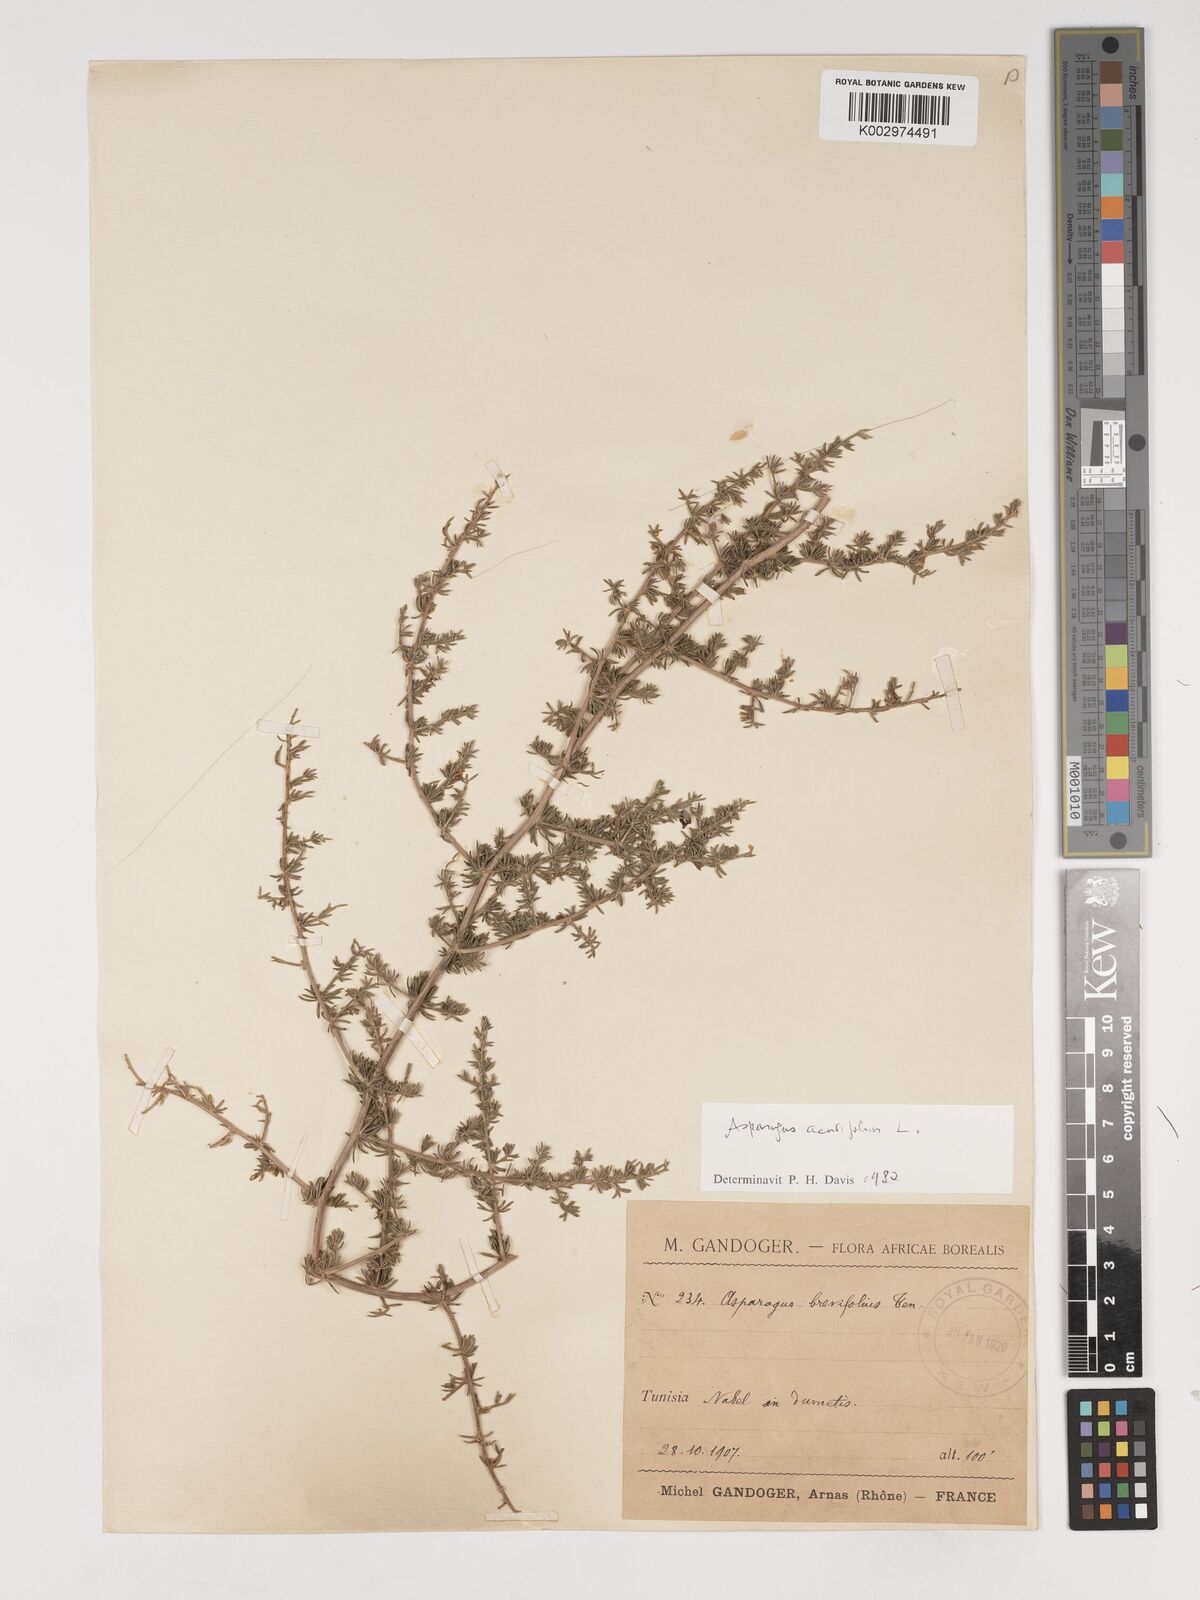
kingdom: Plantae
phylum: Tracheophyta
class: Liliopsida
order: Asparagales
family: Asparagaceae
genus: Asparagus
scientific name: Asparagus acutifolius
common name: Wild asparagus
